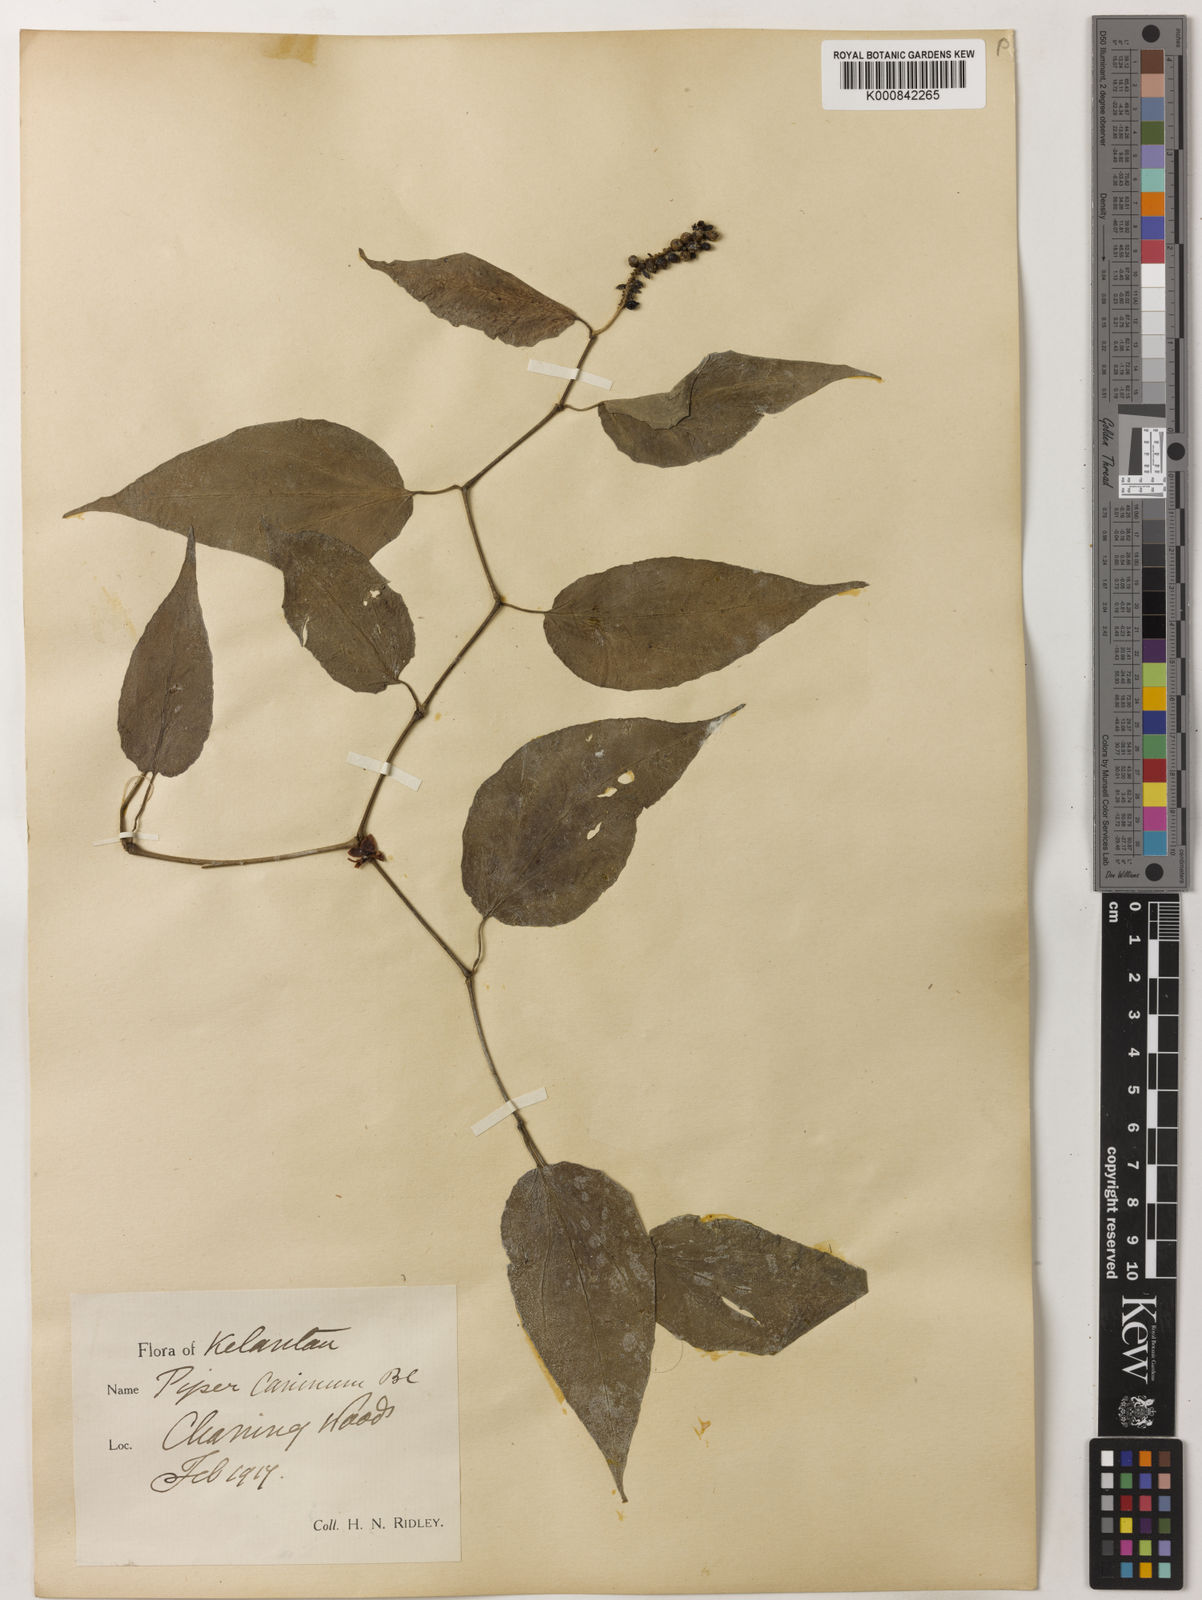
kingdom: Plantae
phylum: Tracheophyta
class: Magnoliopsida
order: Piperales
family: Piperaceae
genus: Piper
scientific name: Piper lanatum
